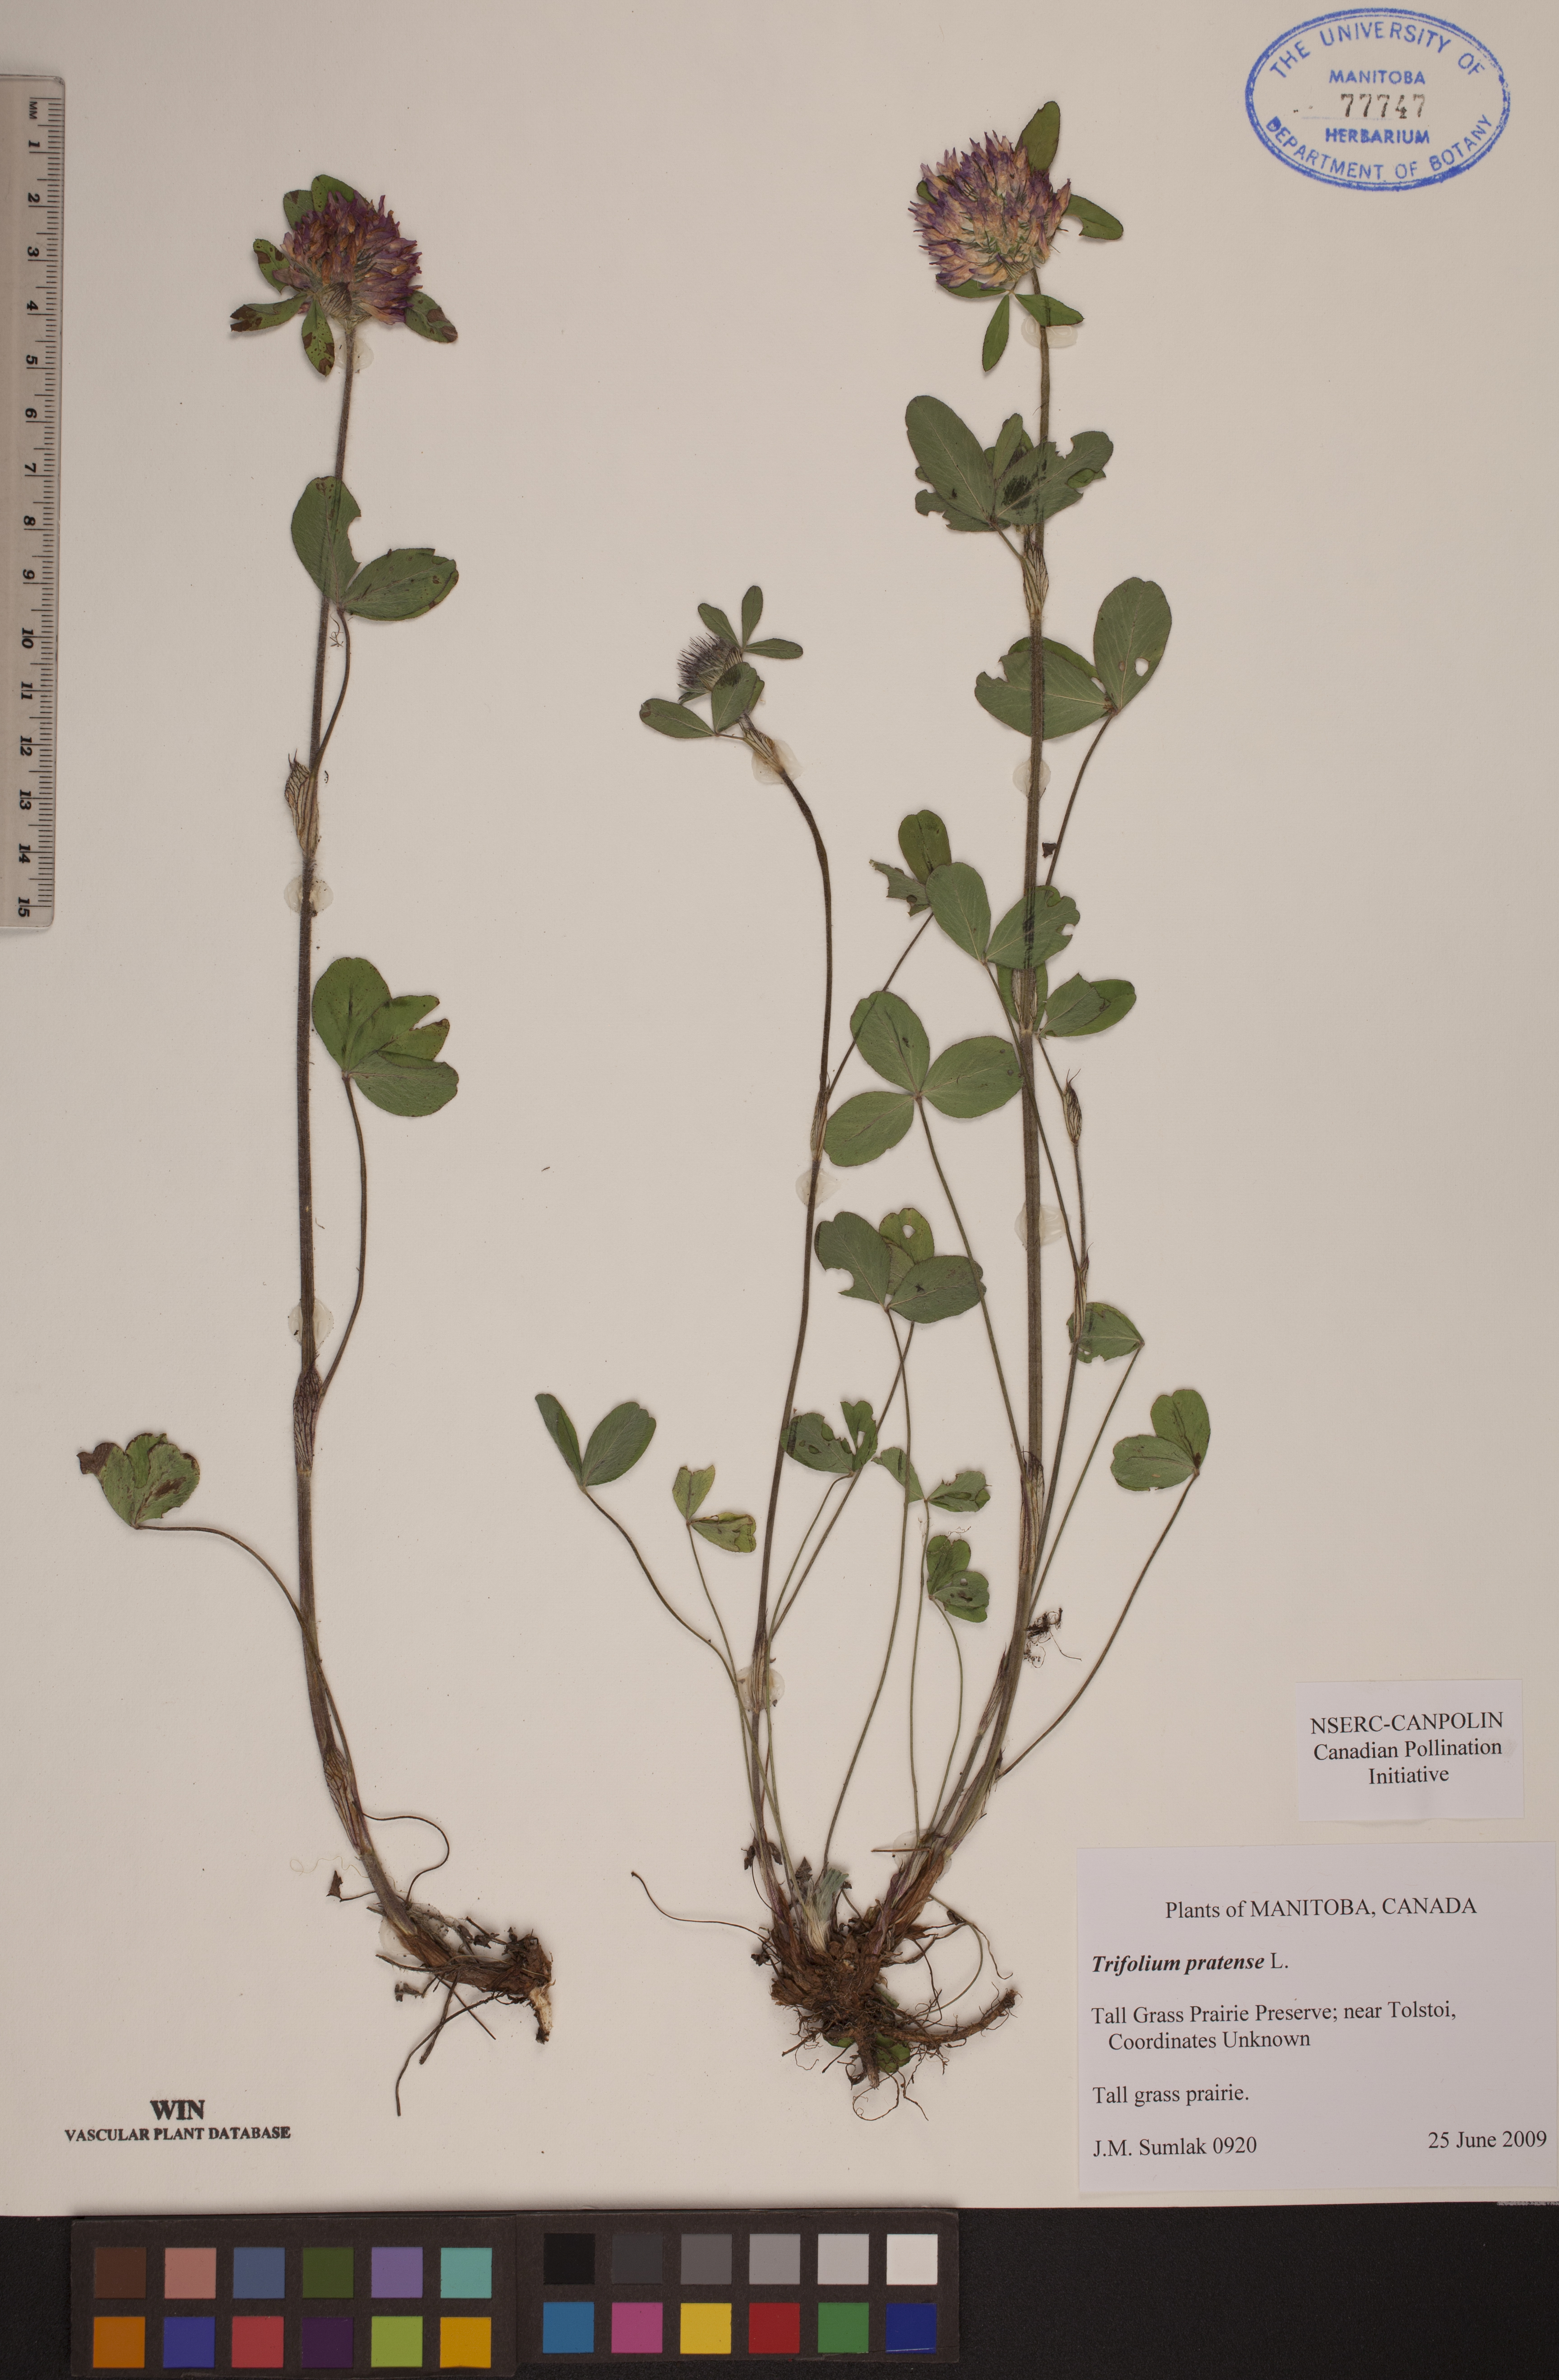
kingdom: Plantae
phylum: Tracheophyta
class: Magnoliopsida
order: Fabales
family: Fabaceae
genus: Trifolium
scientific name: Trifolium pratense
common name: Red clover
